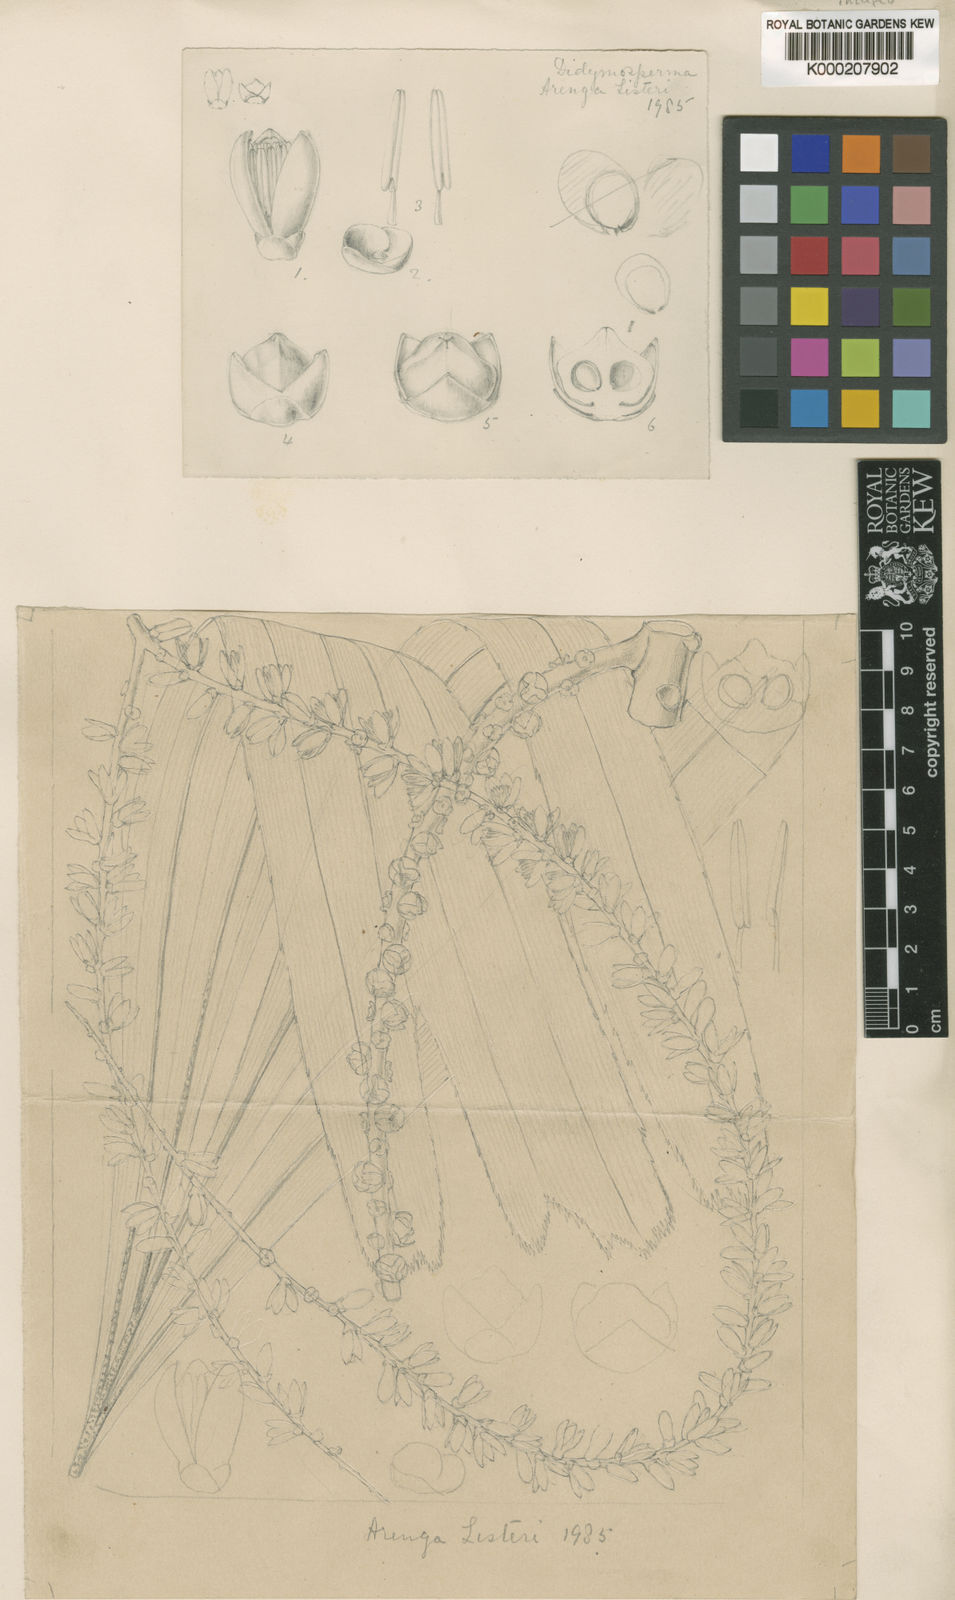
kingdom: Plantae
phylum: Tracheophyta
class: Liliopsida
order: Arecales
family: Arecaceae
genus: Arenga
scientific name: Arenga listeri
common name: Lister's palm
